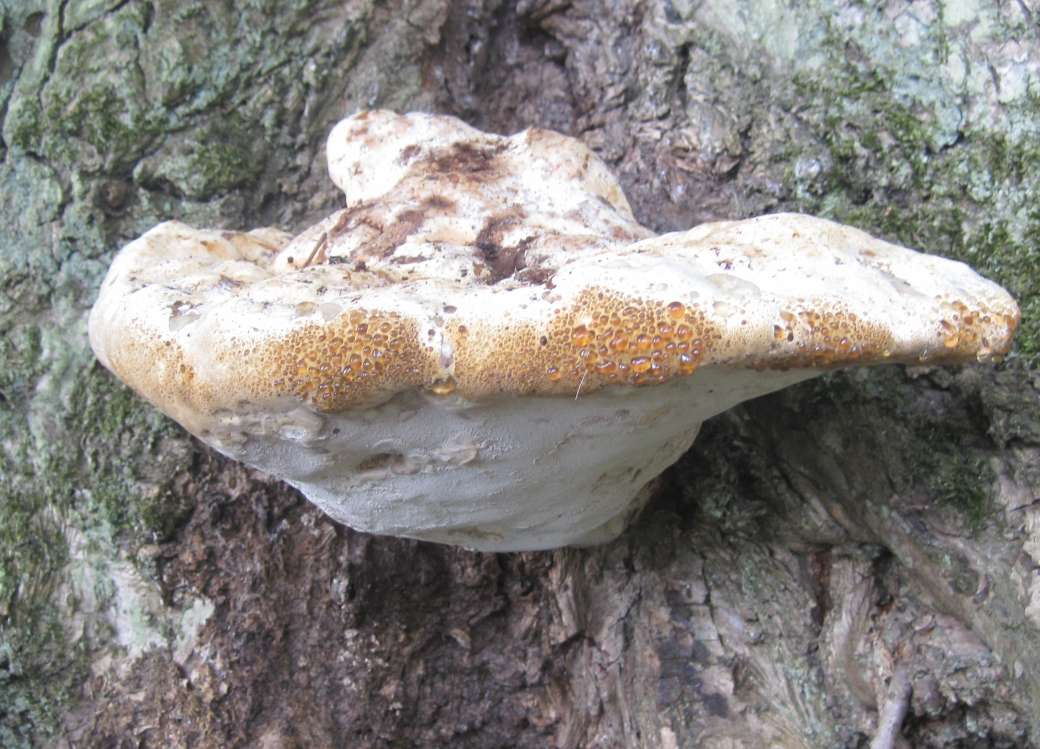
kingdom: Fungi
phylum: Basidiomycota
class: Agaricomycetes
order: Hymenochaetales
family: Hymenochaetaceae
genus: Pseudoinonotus
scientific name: Pseudoinonotus dryadeus
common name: ege-spejlporesvamp
